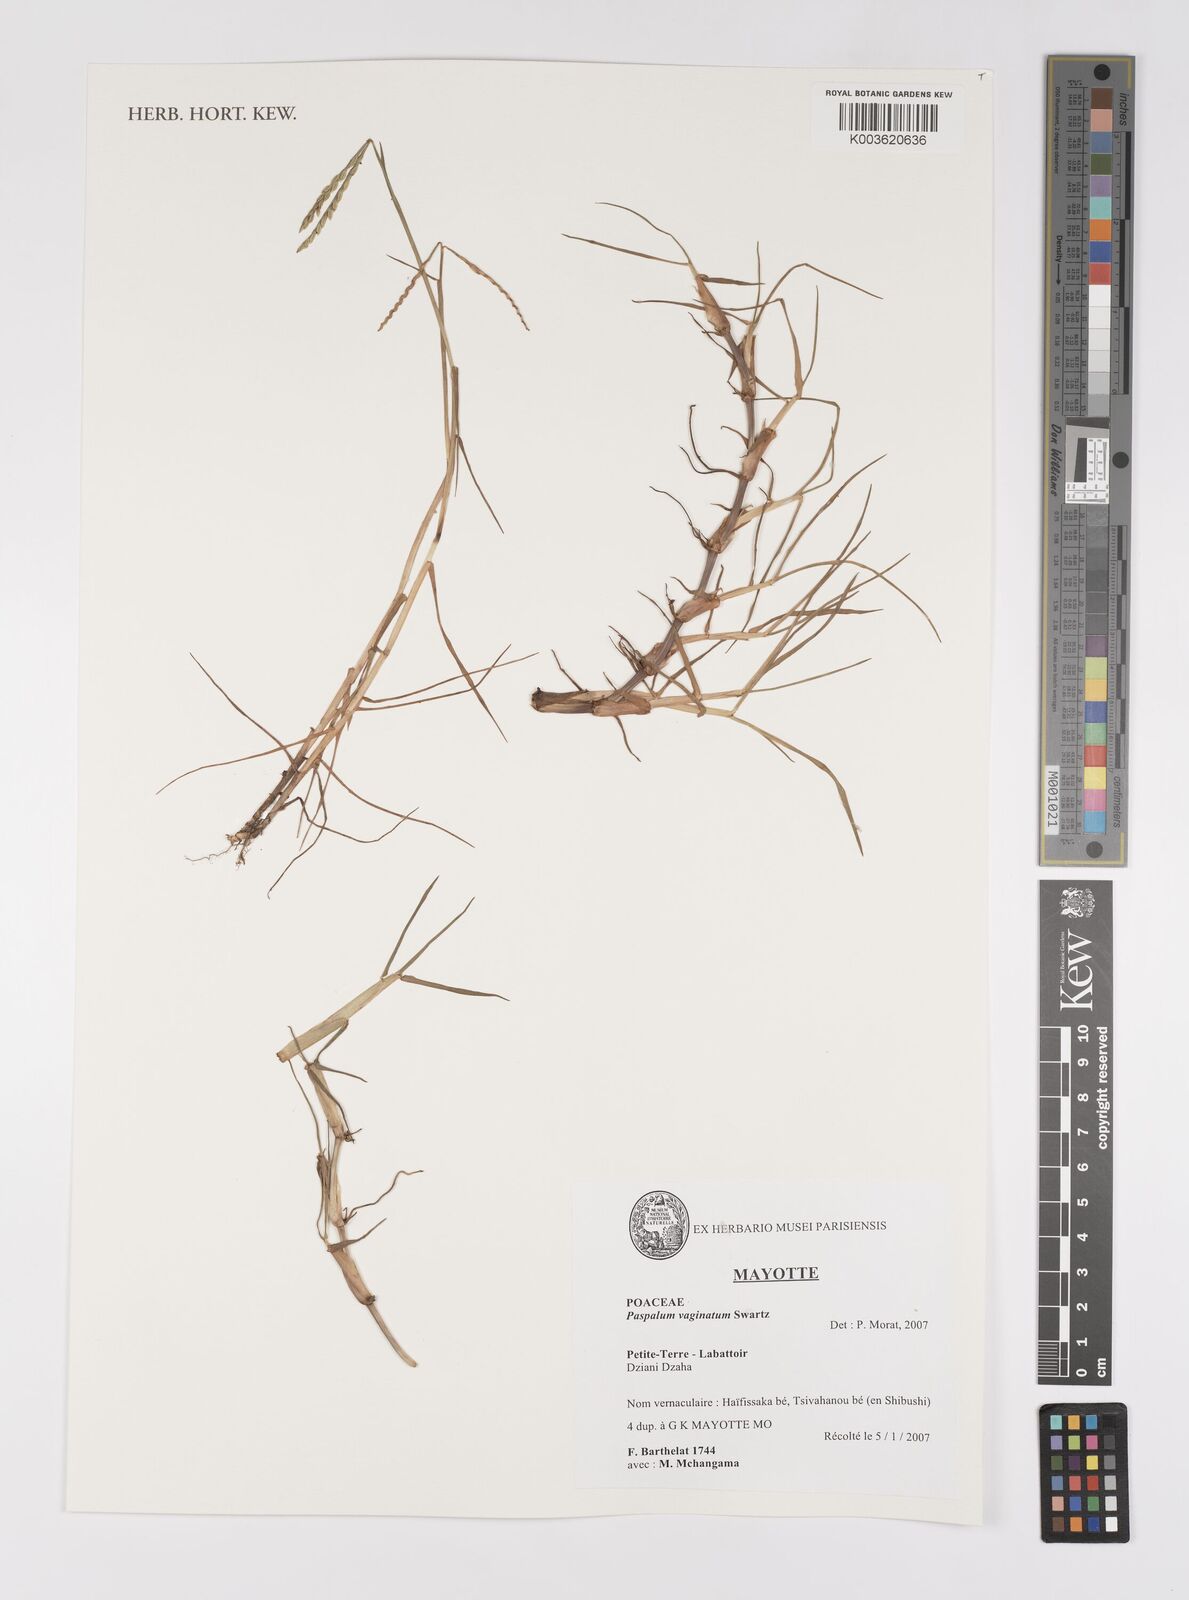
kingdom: Plantae
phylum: Tracheophyta
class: Liliopsida
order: Poales
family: Poaceae
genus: Paspalum
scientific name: Paspalum vaginatum
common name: Seashore paspalum
